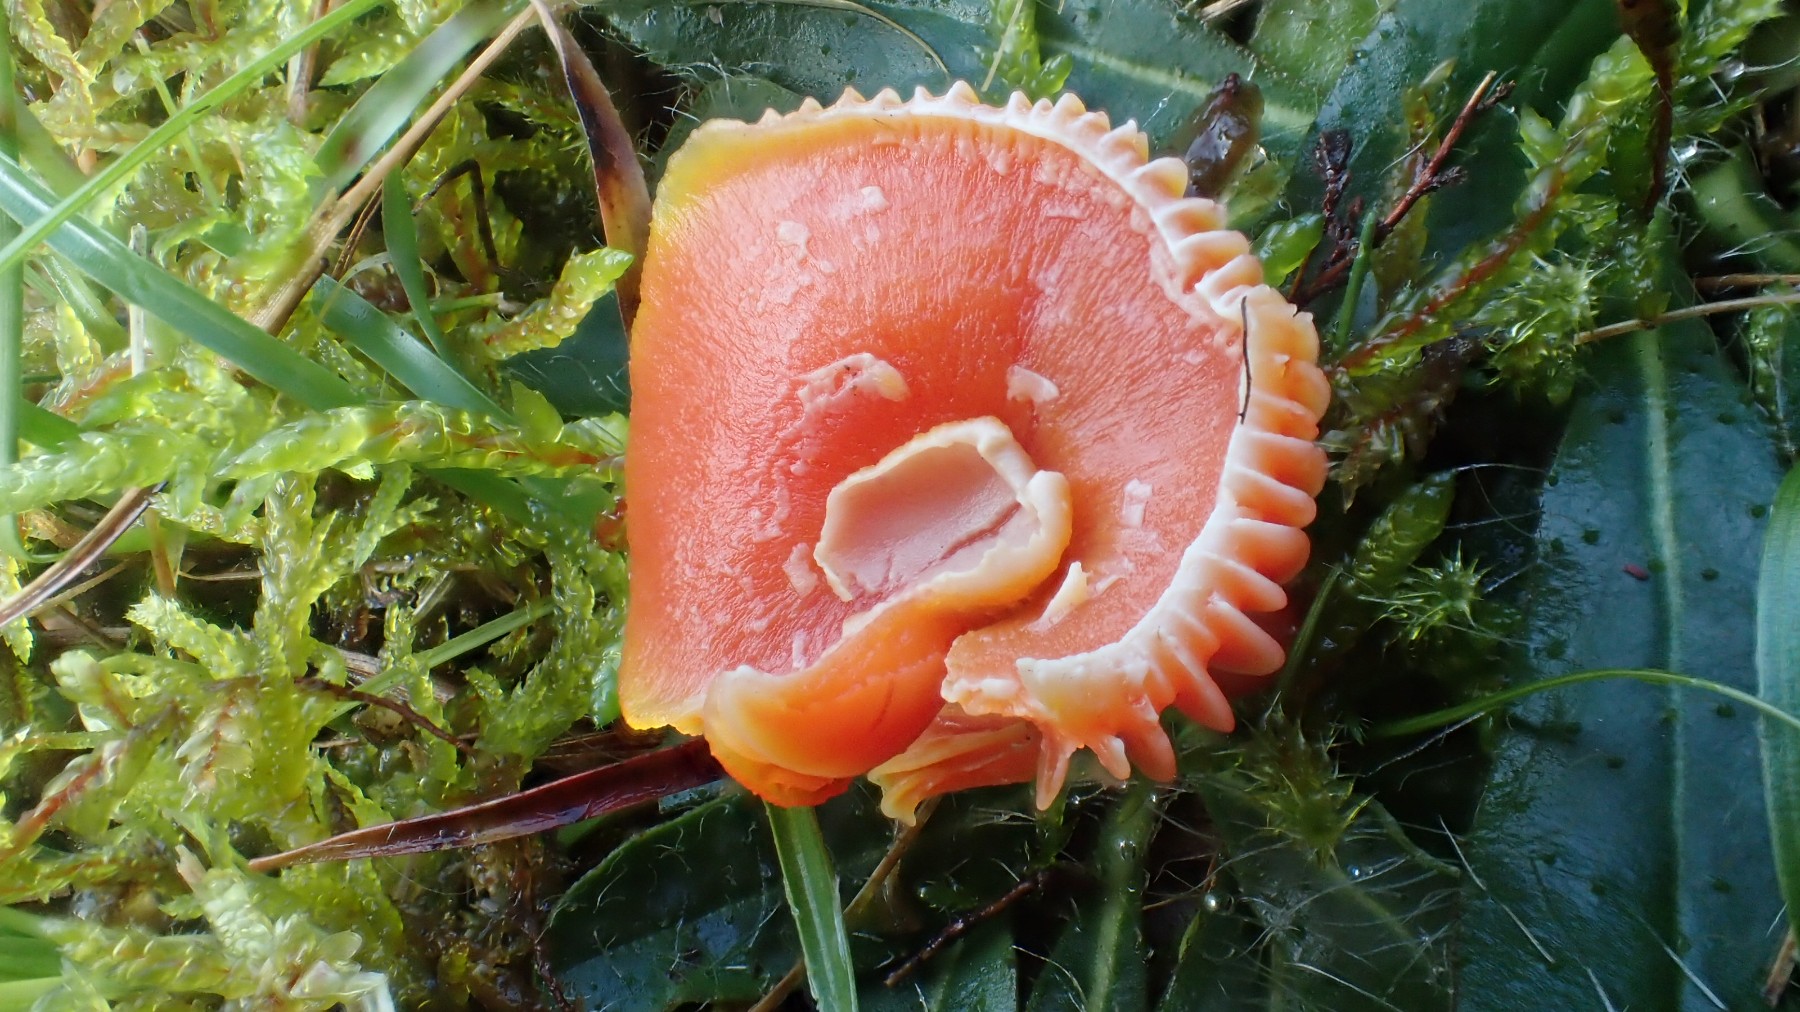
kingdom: Fungi
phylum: Basidiomycota
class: Agaricomycetes
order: Agaricales
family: Hygrophoraceae
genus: Hygrocybe
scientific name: Hygrocybe miniata
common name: mønje-vokshat
